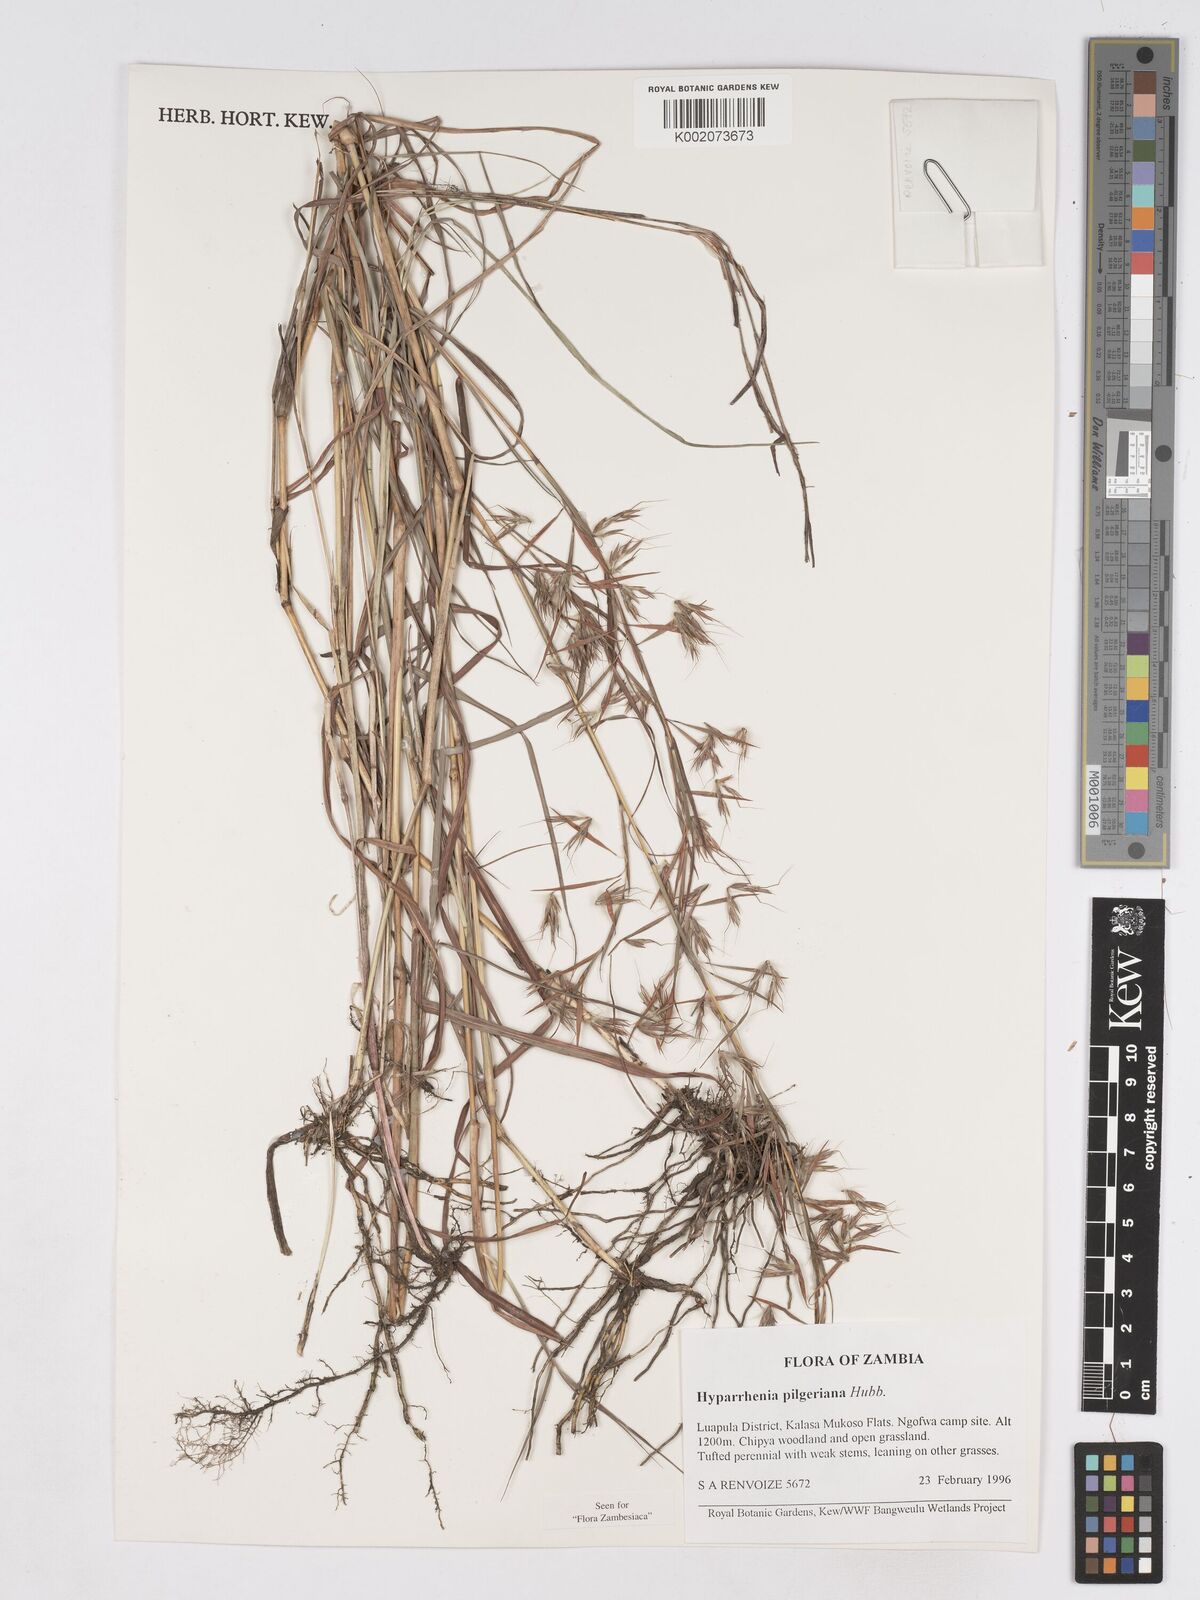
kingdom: Plantae
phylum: Tracheophyta
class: Liliopsida
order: Poales
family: Poaceae
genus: Hyparrhenia
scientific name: Hyparrhenia pilgeriana
